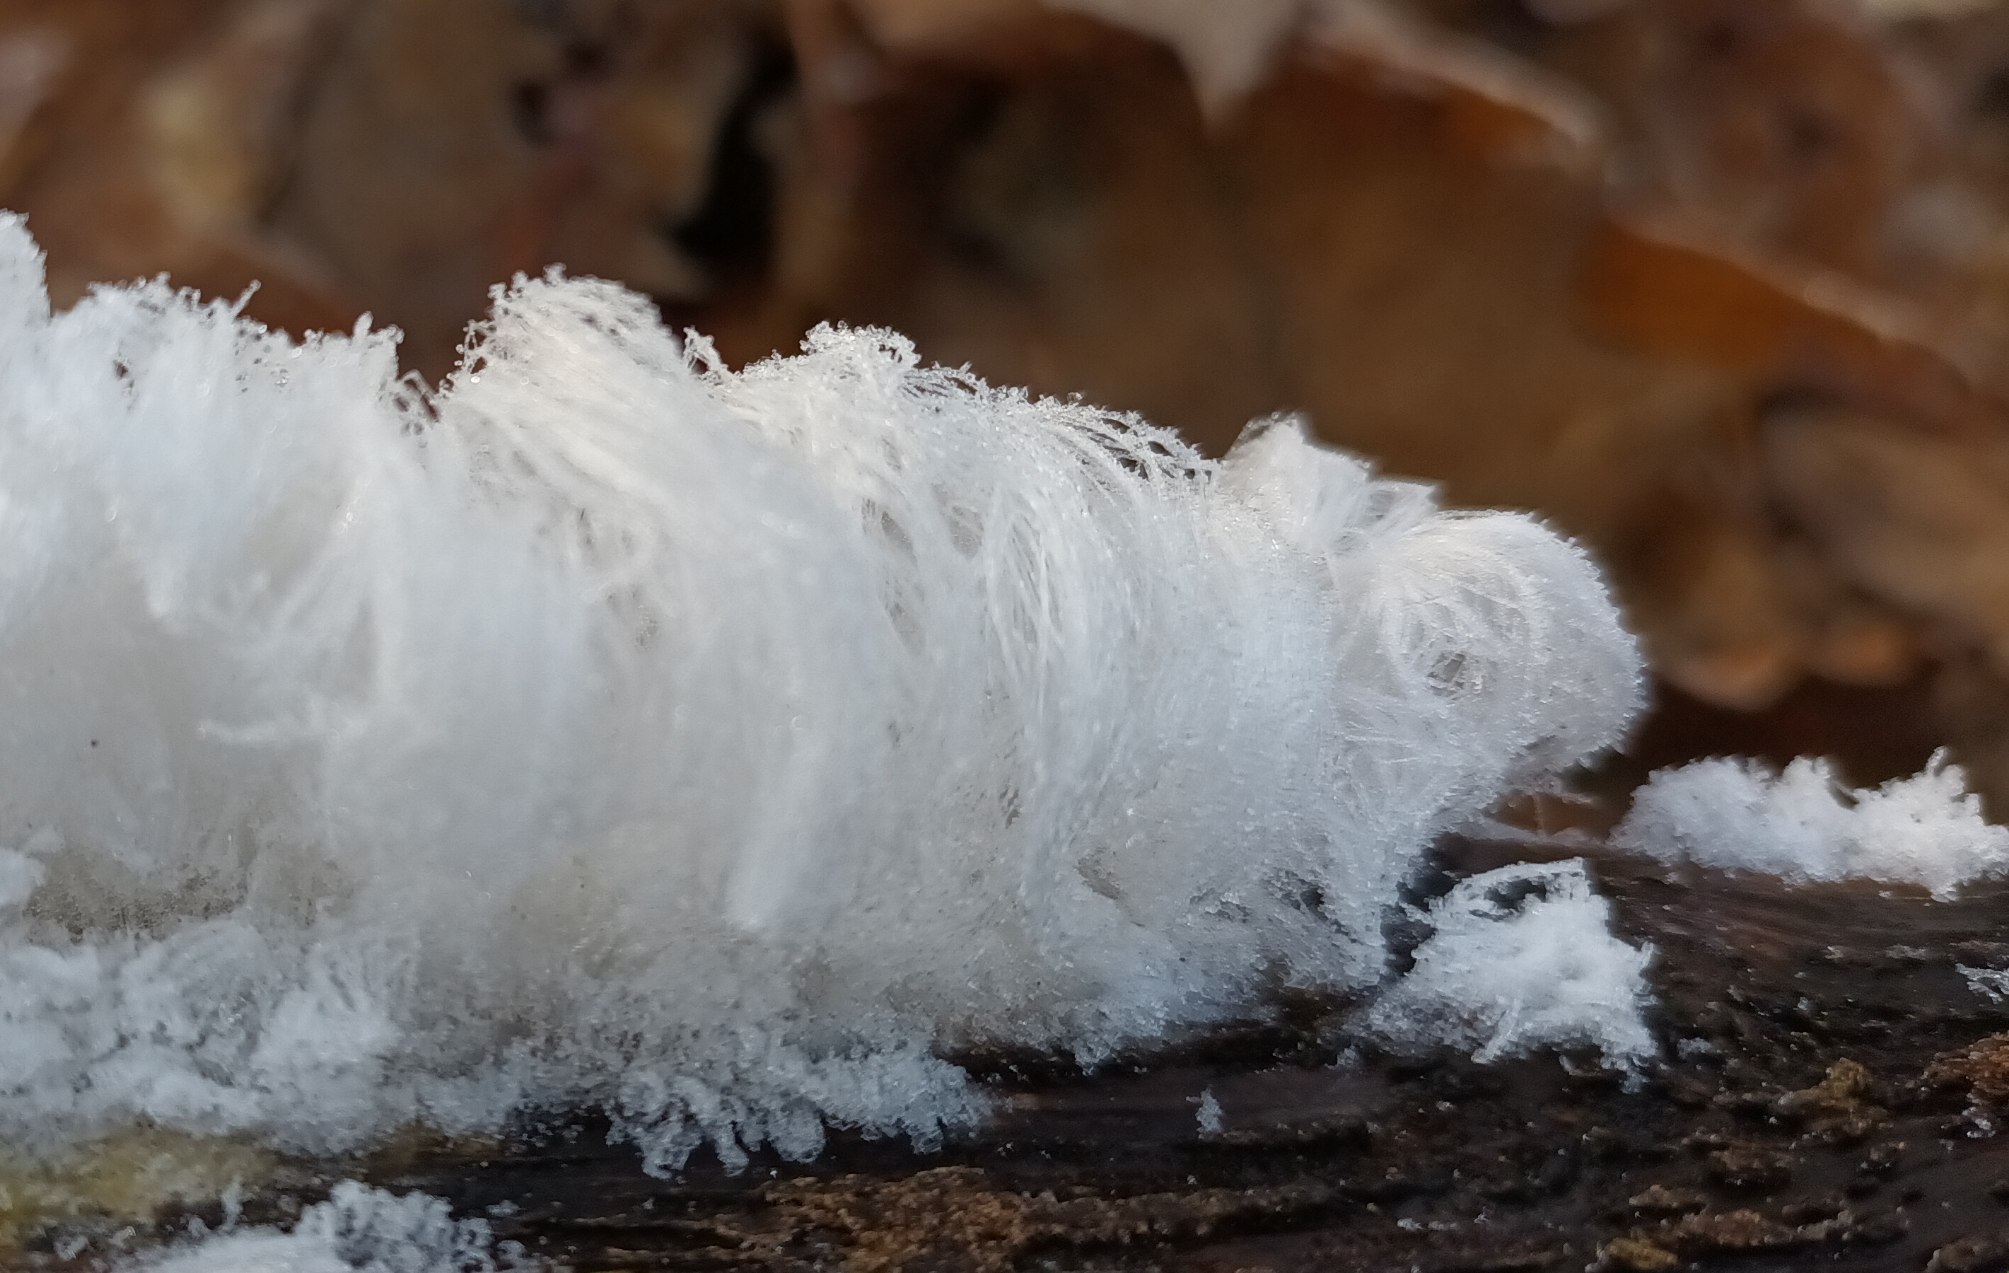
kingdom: Fungi
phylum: Basidiomycota
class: Tremellomycetes
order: Tremellales
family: Exidiaceae
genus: Exidiopsis
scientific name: Exidiopsis effusa
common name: Smuk bævrehinde
